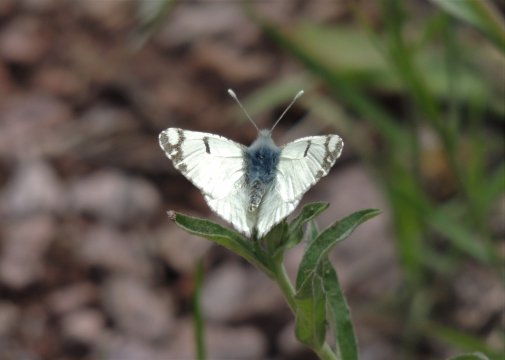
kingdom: Animalia
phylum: Arthropoda
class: Insecta
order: Lepidoptera
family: Pieridae
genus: Euchloe
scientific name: Euchloe lotta
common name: Desert Marble
